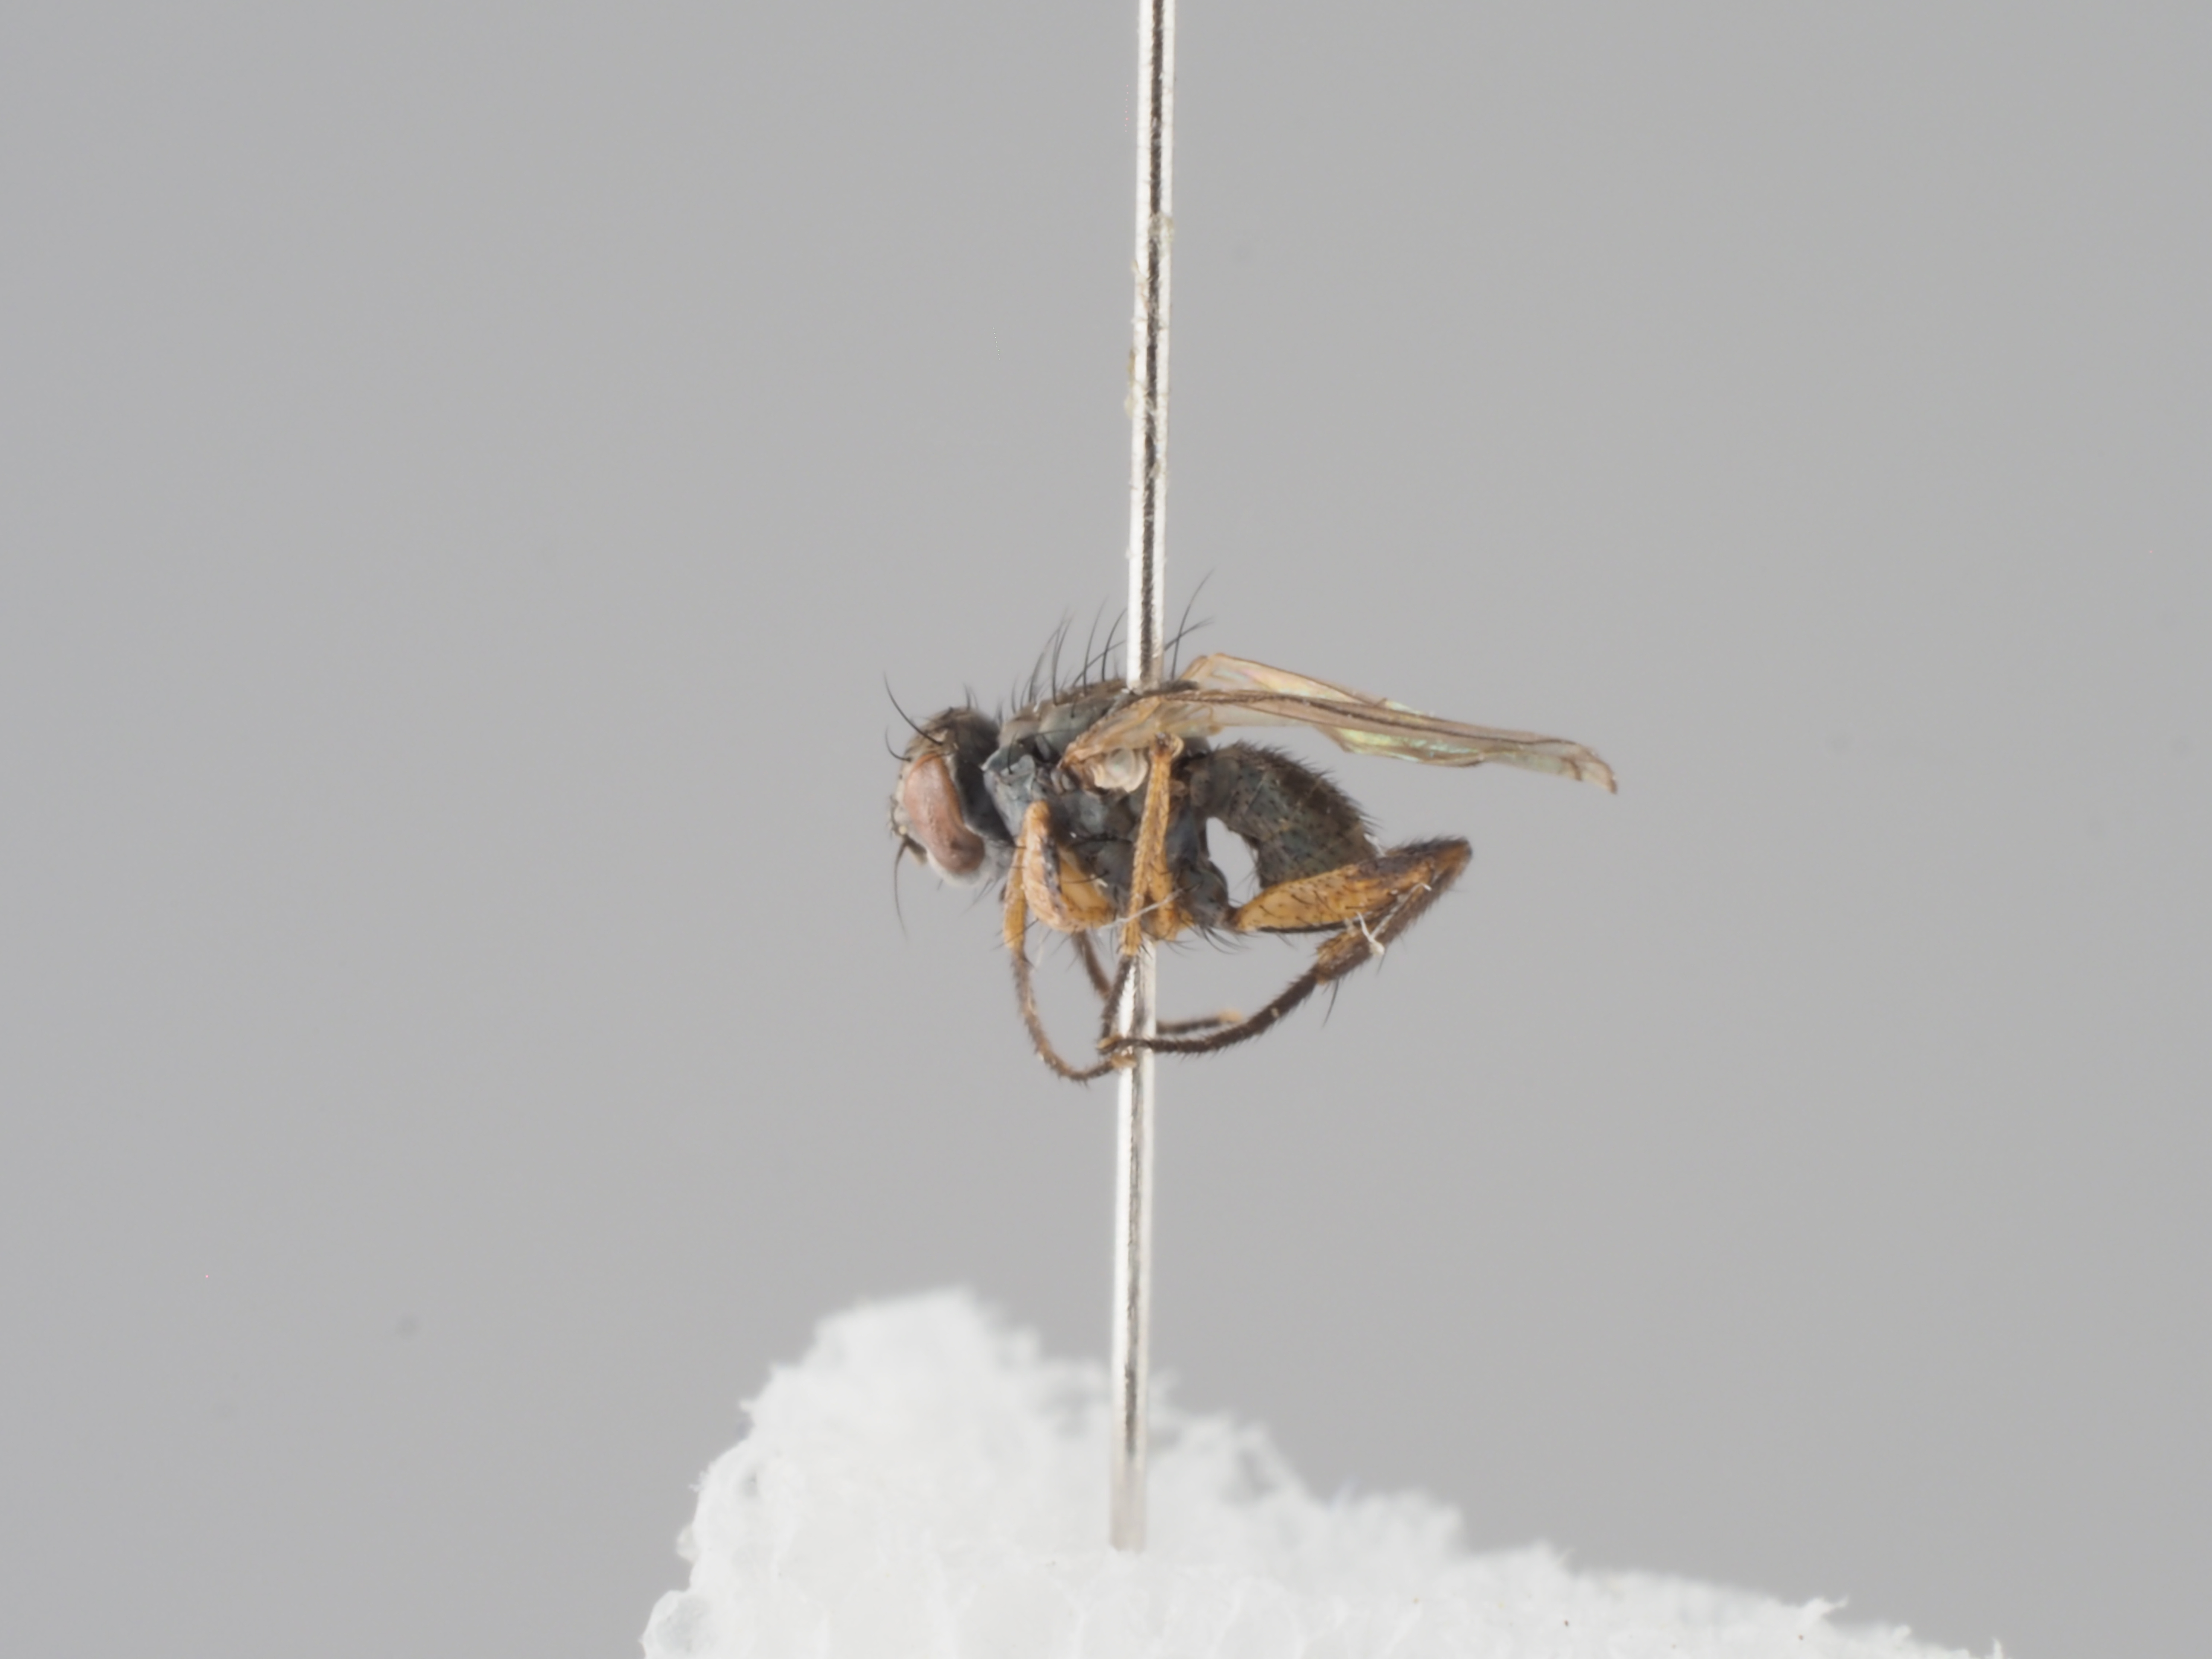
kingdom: Animalia
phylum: Arthropoda
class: Insecta
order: Diptera
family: Muscidae
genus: Coenosia
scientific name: Coenosia ambulans
